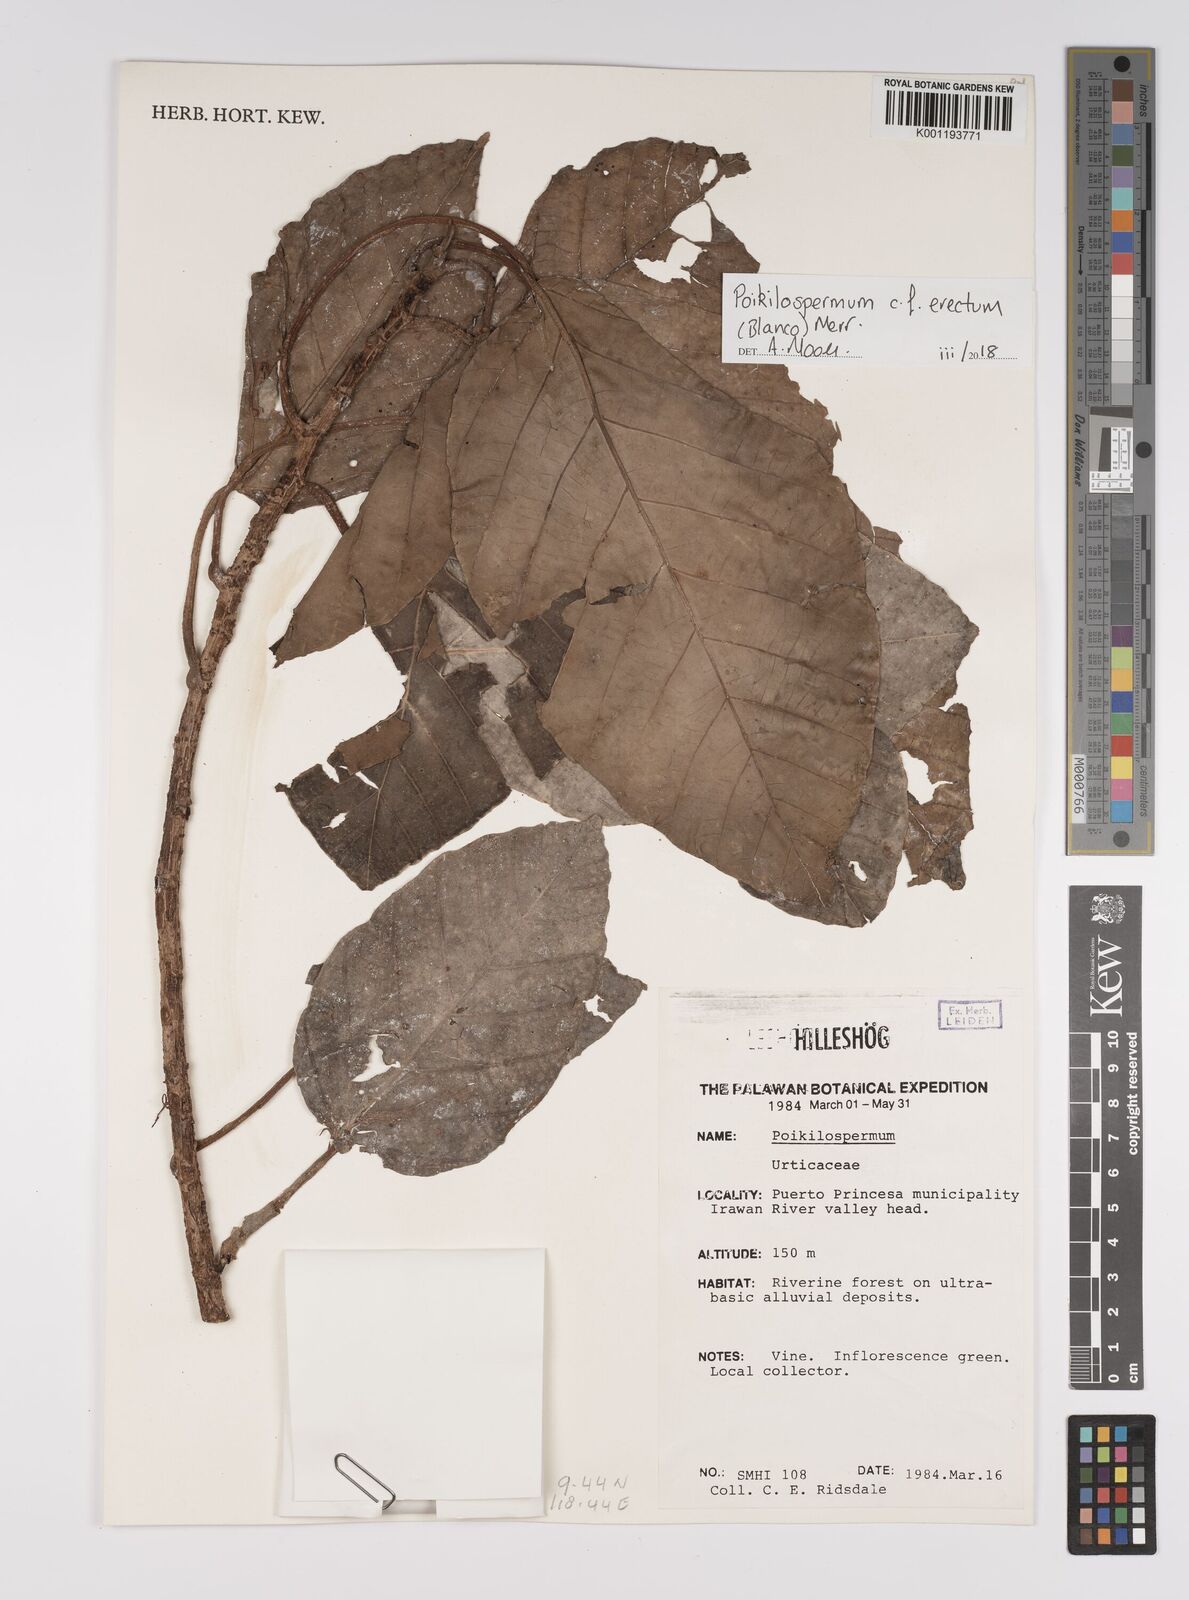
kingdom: Plantae
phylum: Tracheophyta
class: Magnoliopsida
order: Rosales
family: Urticaceae
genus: Poikilospermum
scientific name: Poikilospermum
